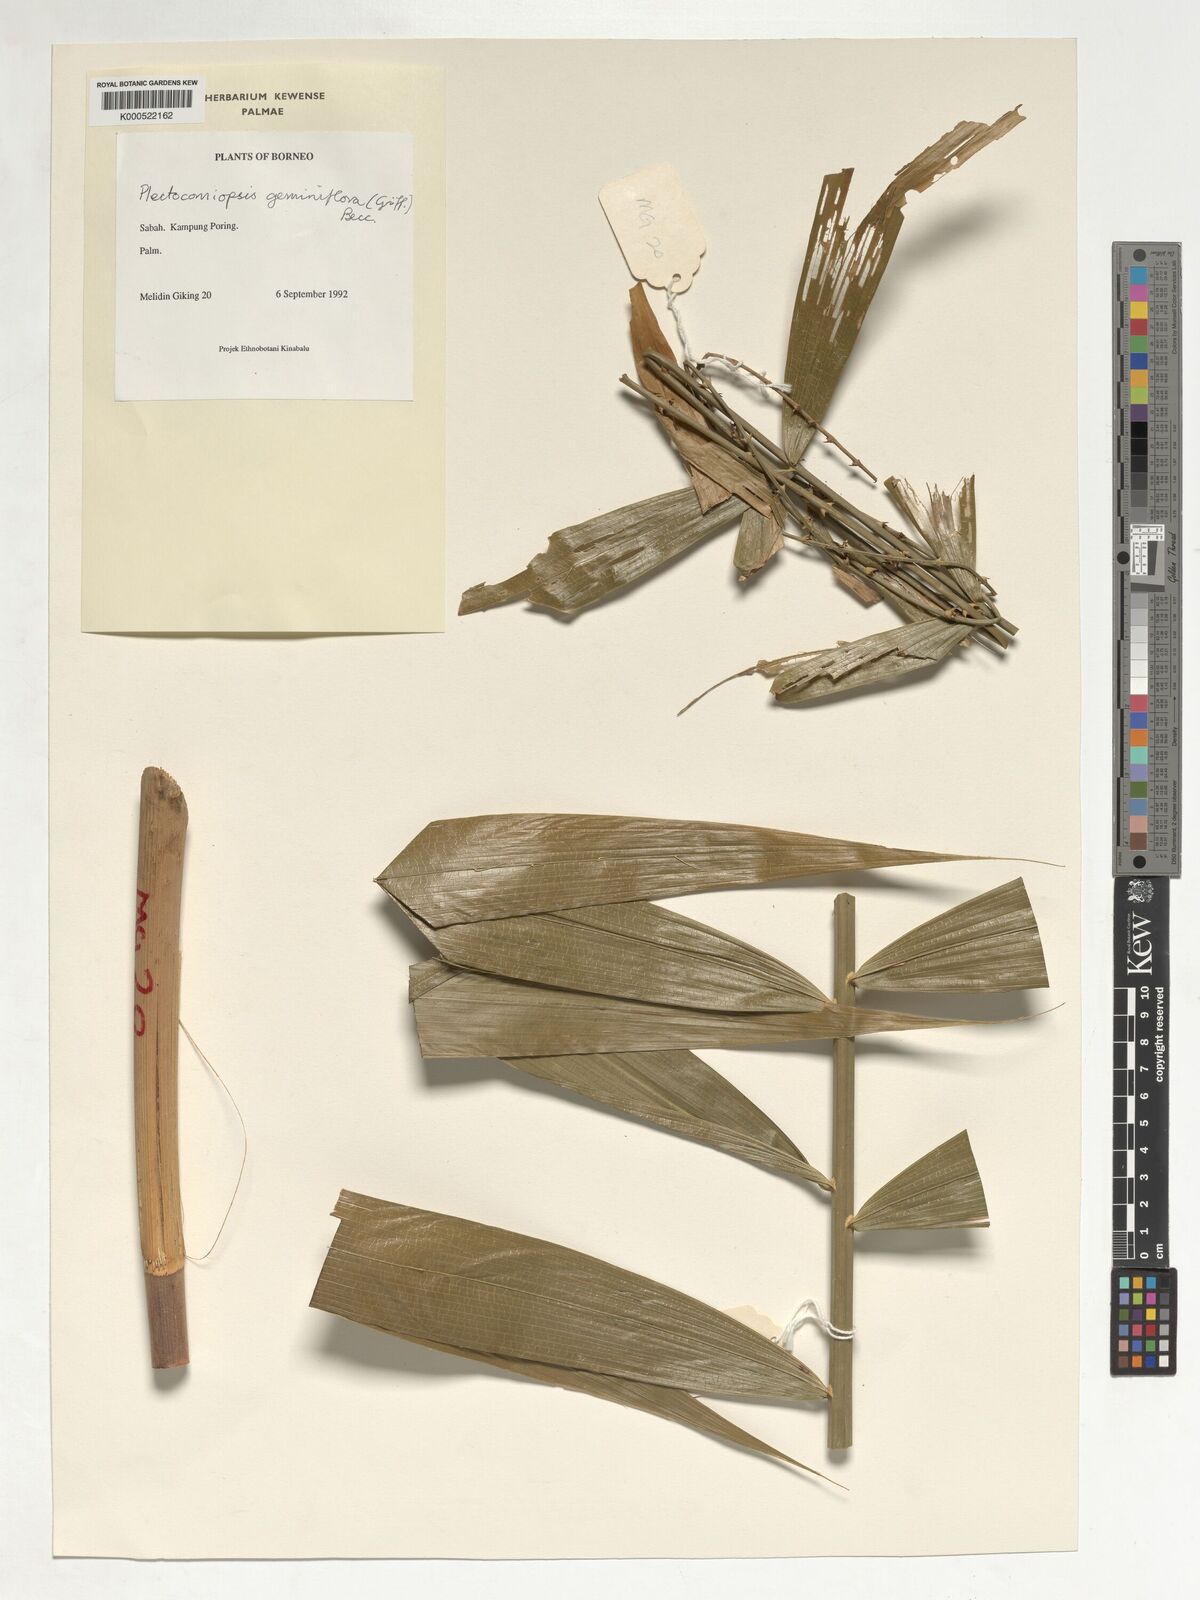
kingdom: Plantae
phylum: Tracheophyta
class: Liliopsida
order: Arecales
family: Arecaceae
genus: Plectocomiopsis
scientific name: Plectocomiopsis geminiflora
